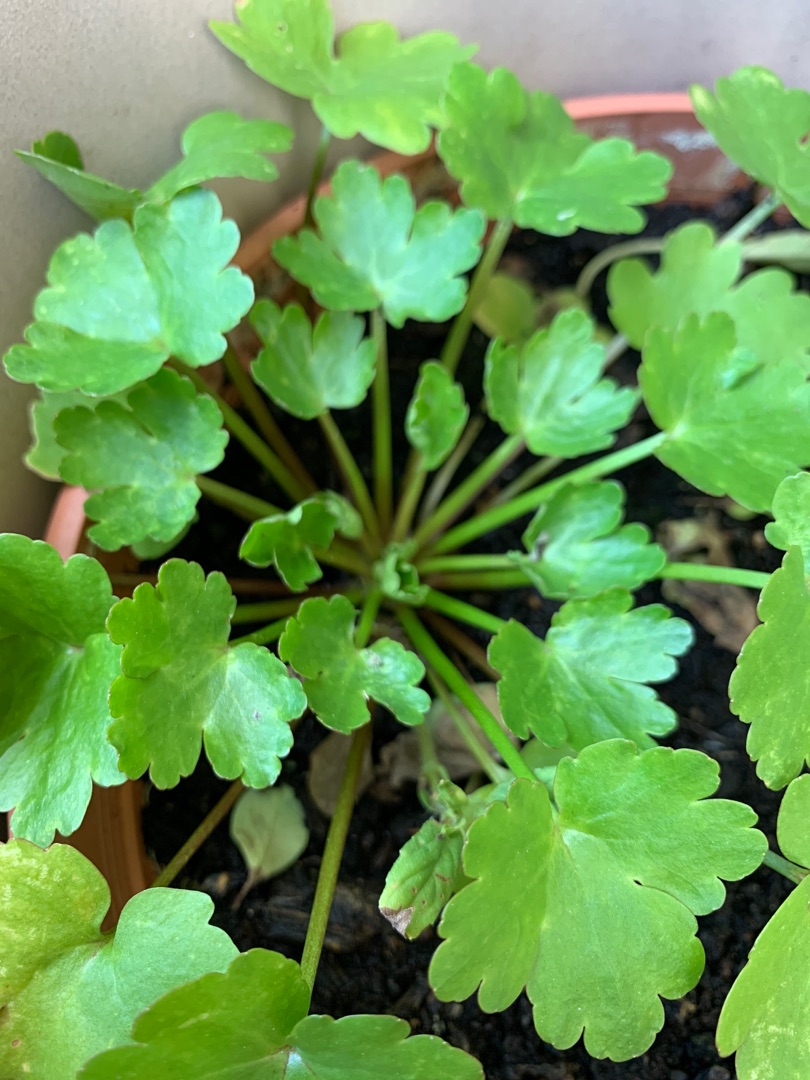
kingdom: Plantae
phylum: Tracheophyta
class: Magnoliopsida
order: Ranunculales
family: Ranunculaceae
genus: Ranunculus
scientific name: Ranunculus sceleratus
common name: Tigger-ranunkel
